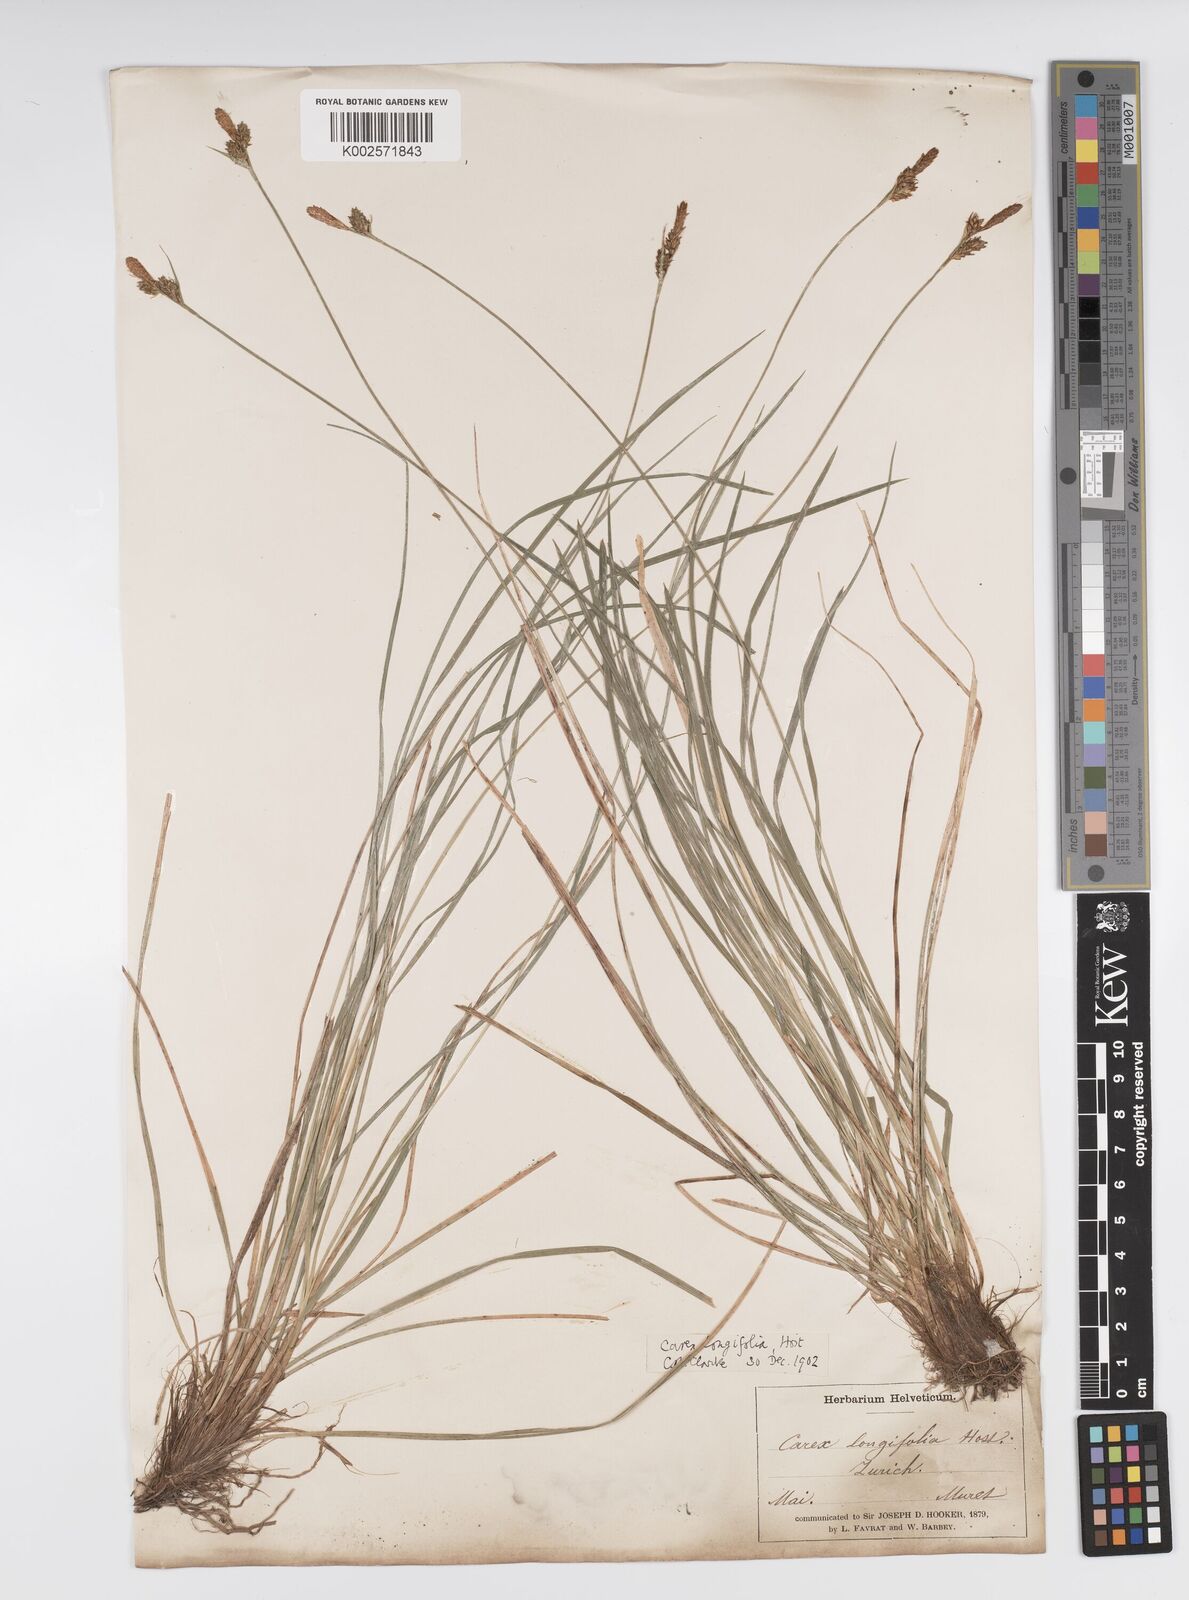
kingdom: Plantae
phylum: Tracheophyta
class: Liliopsida
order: Poales
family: Cyperaceae
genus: Carex
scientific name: Carex umbrosa
